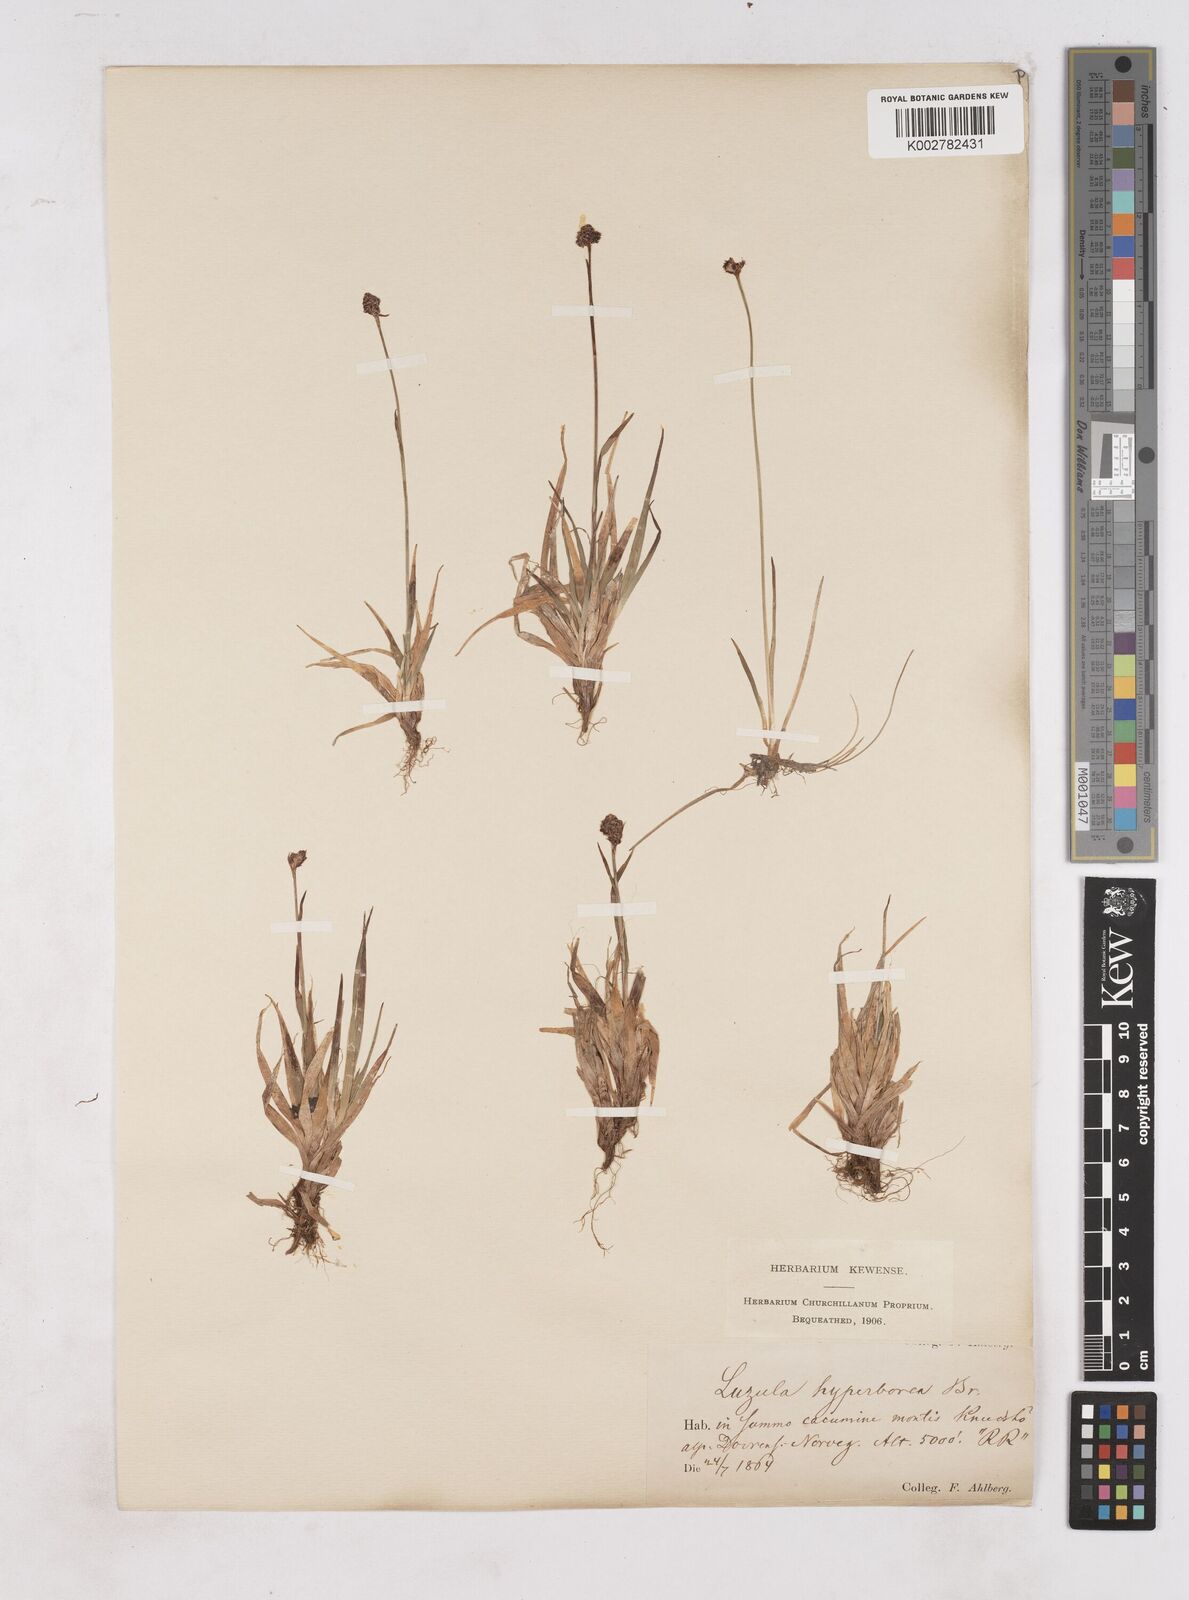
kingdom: Plantae
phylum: Tracheophyta
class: Liliopsida
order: Poales
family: Juncaceae
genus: Luzula
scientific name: Luzula nivalis
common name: Arctic woodrush
